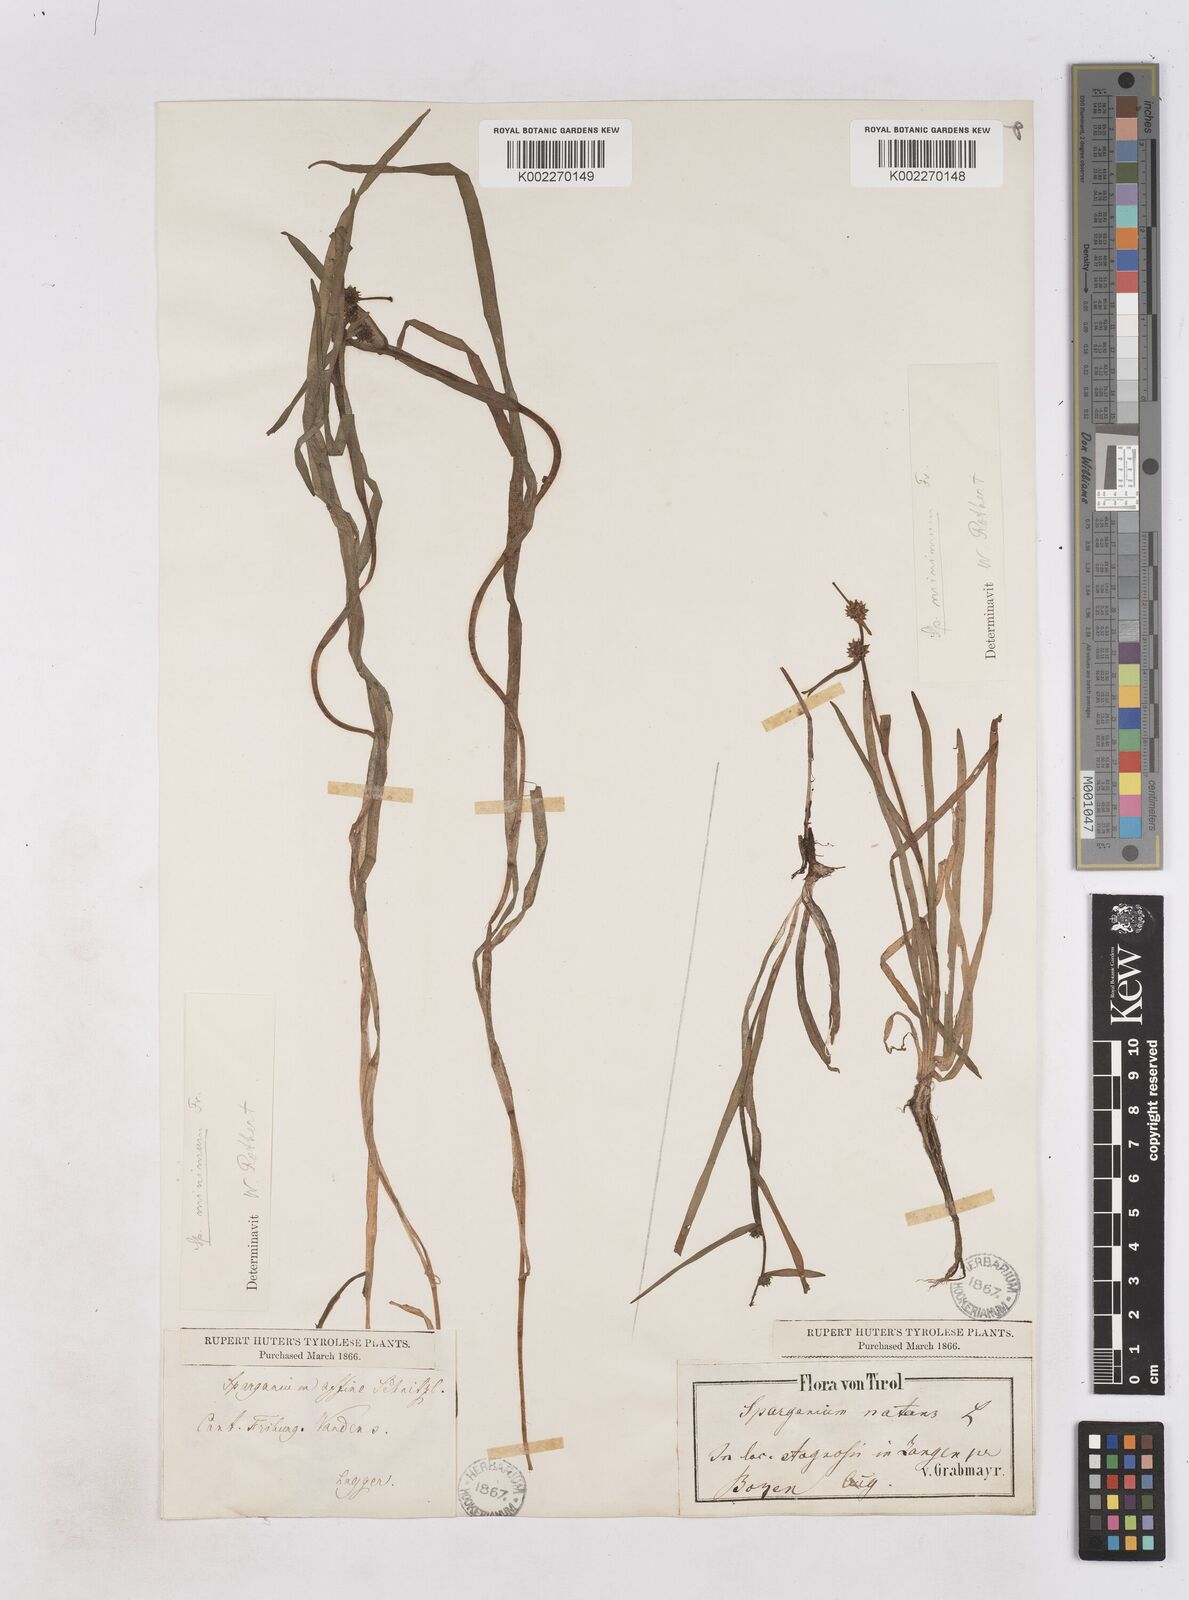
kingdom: Plantae
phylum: Tracheophyta
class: Liliopsida
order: Poales
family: Typhaceae
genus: Sparganium
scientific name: Sparganium natans
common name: Least bur-reed
